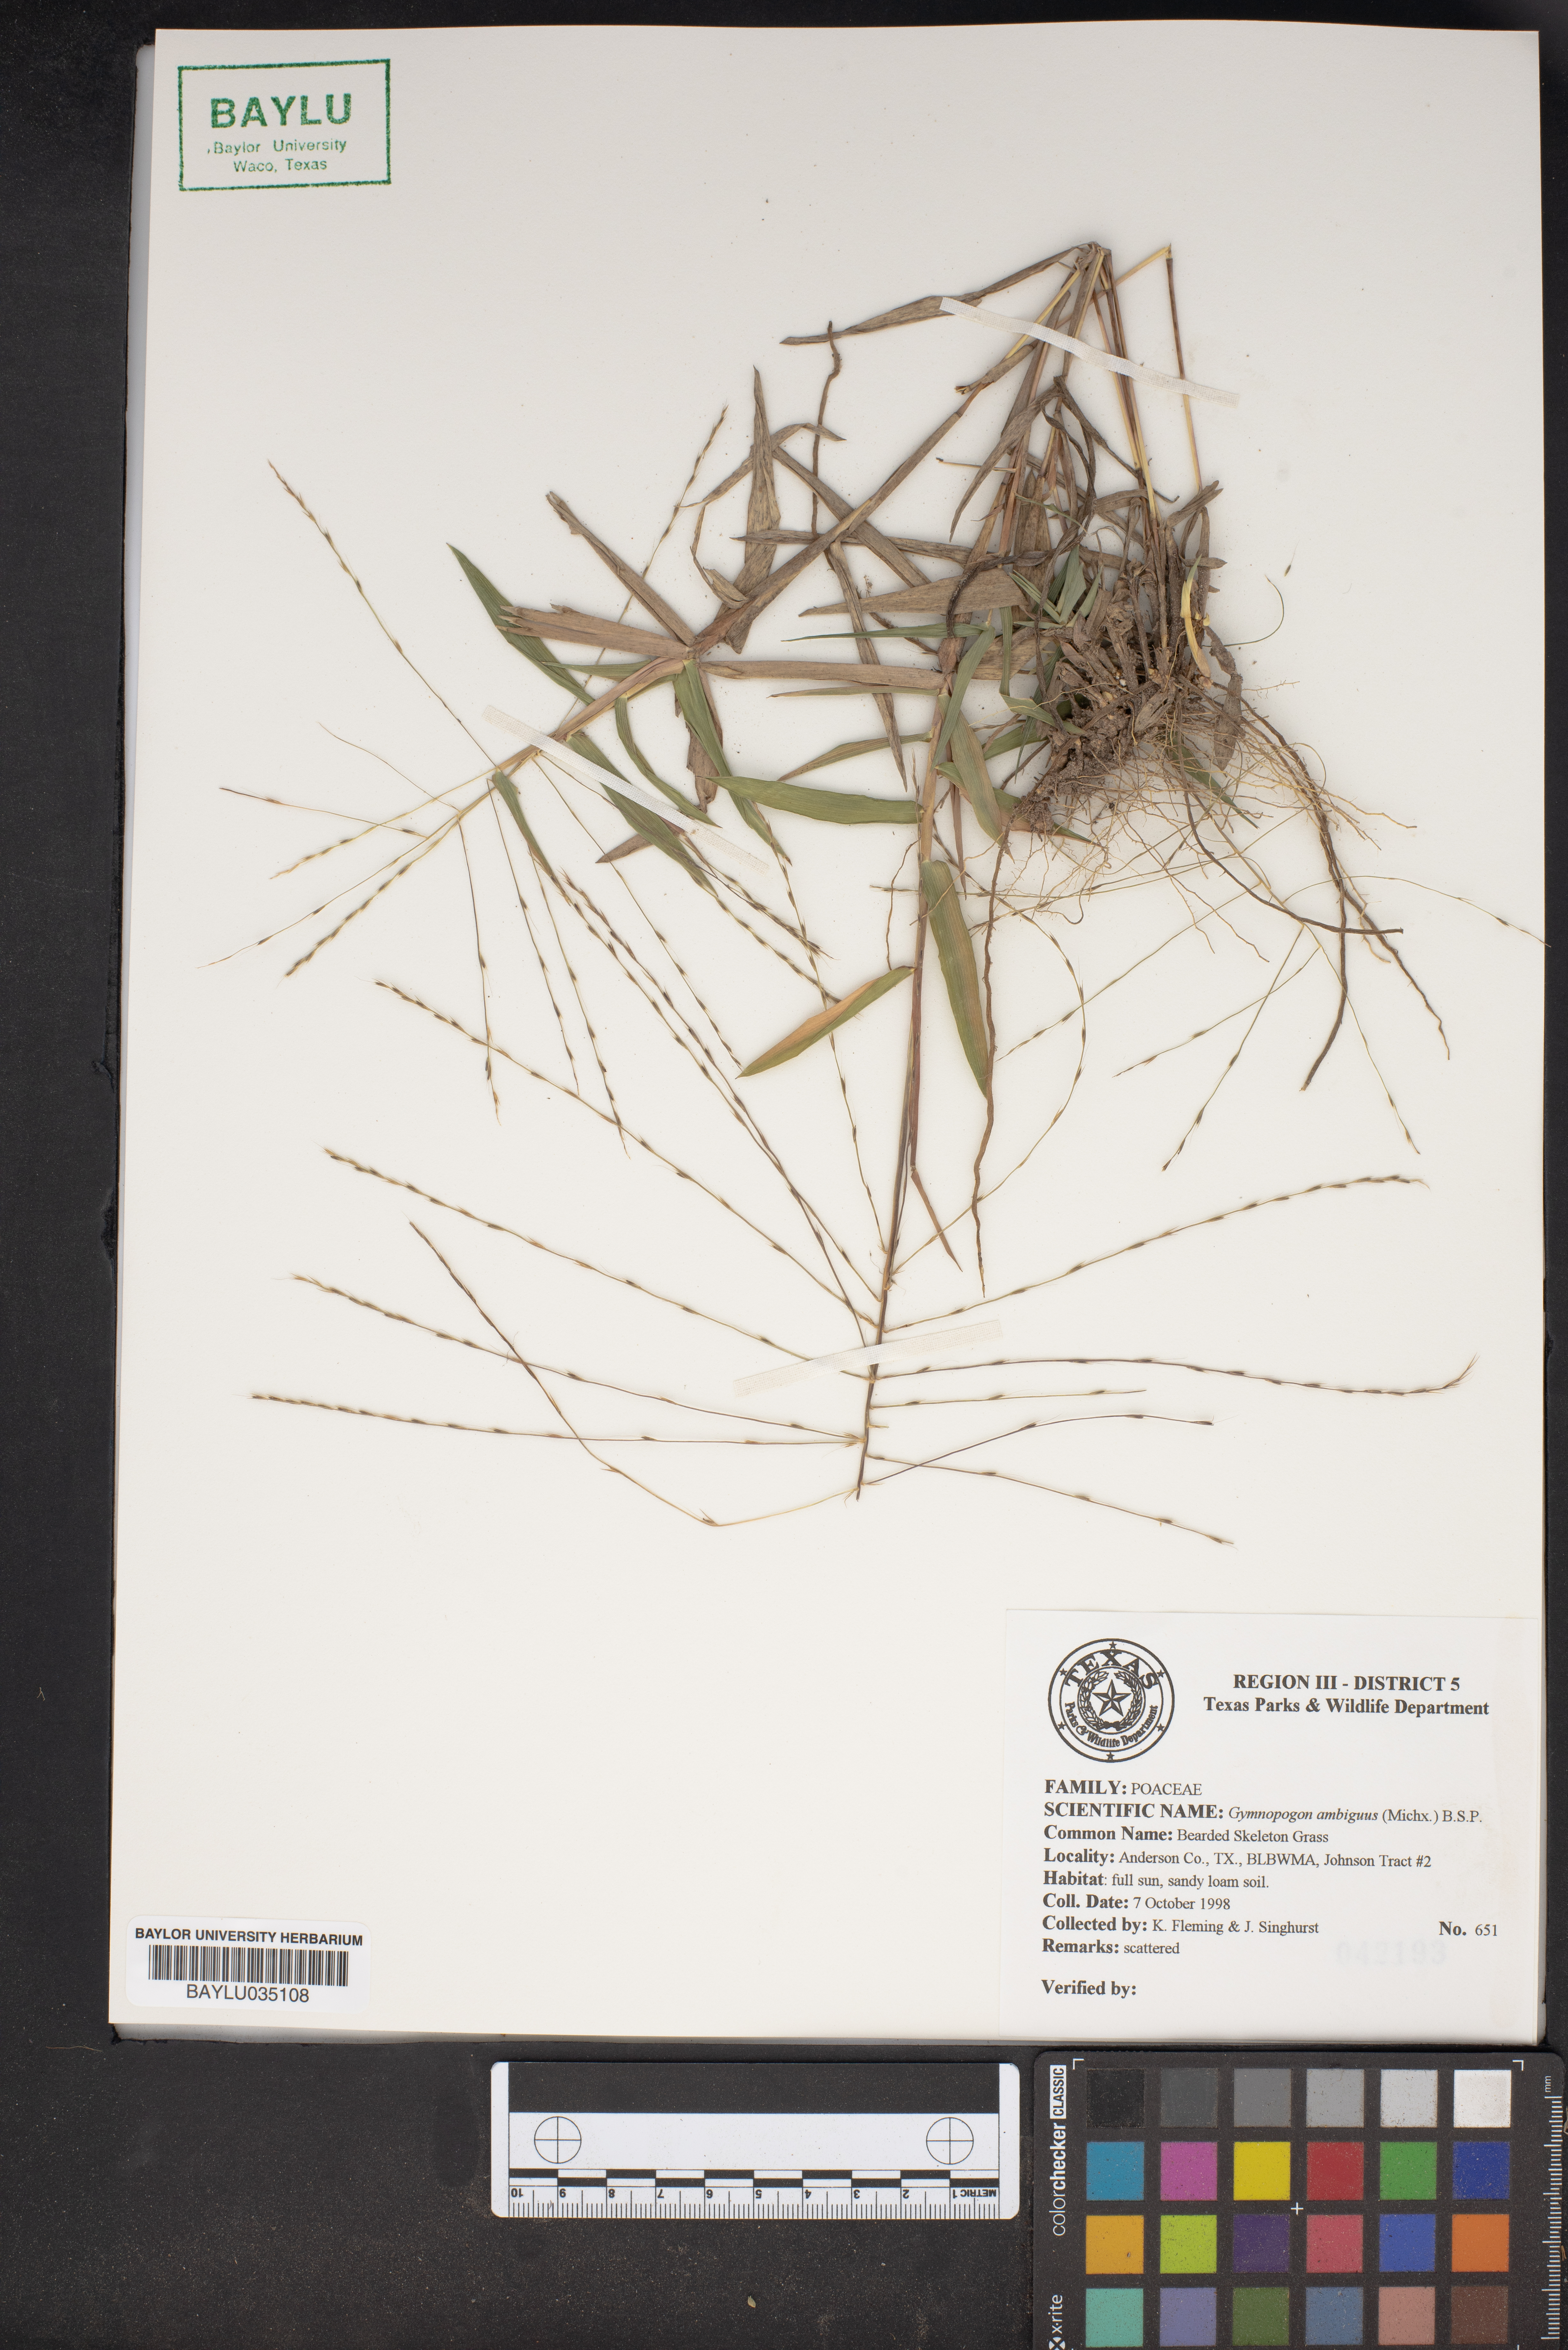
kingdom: Plantae
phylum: Tracheophyta
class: Liliopsida
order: Poales
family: Poaceae
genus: Gymnopogon
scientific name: Gymnopogon ambiguus
